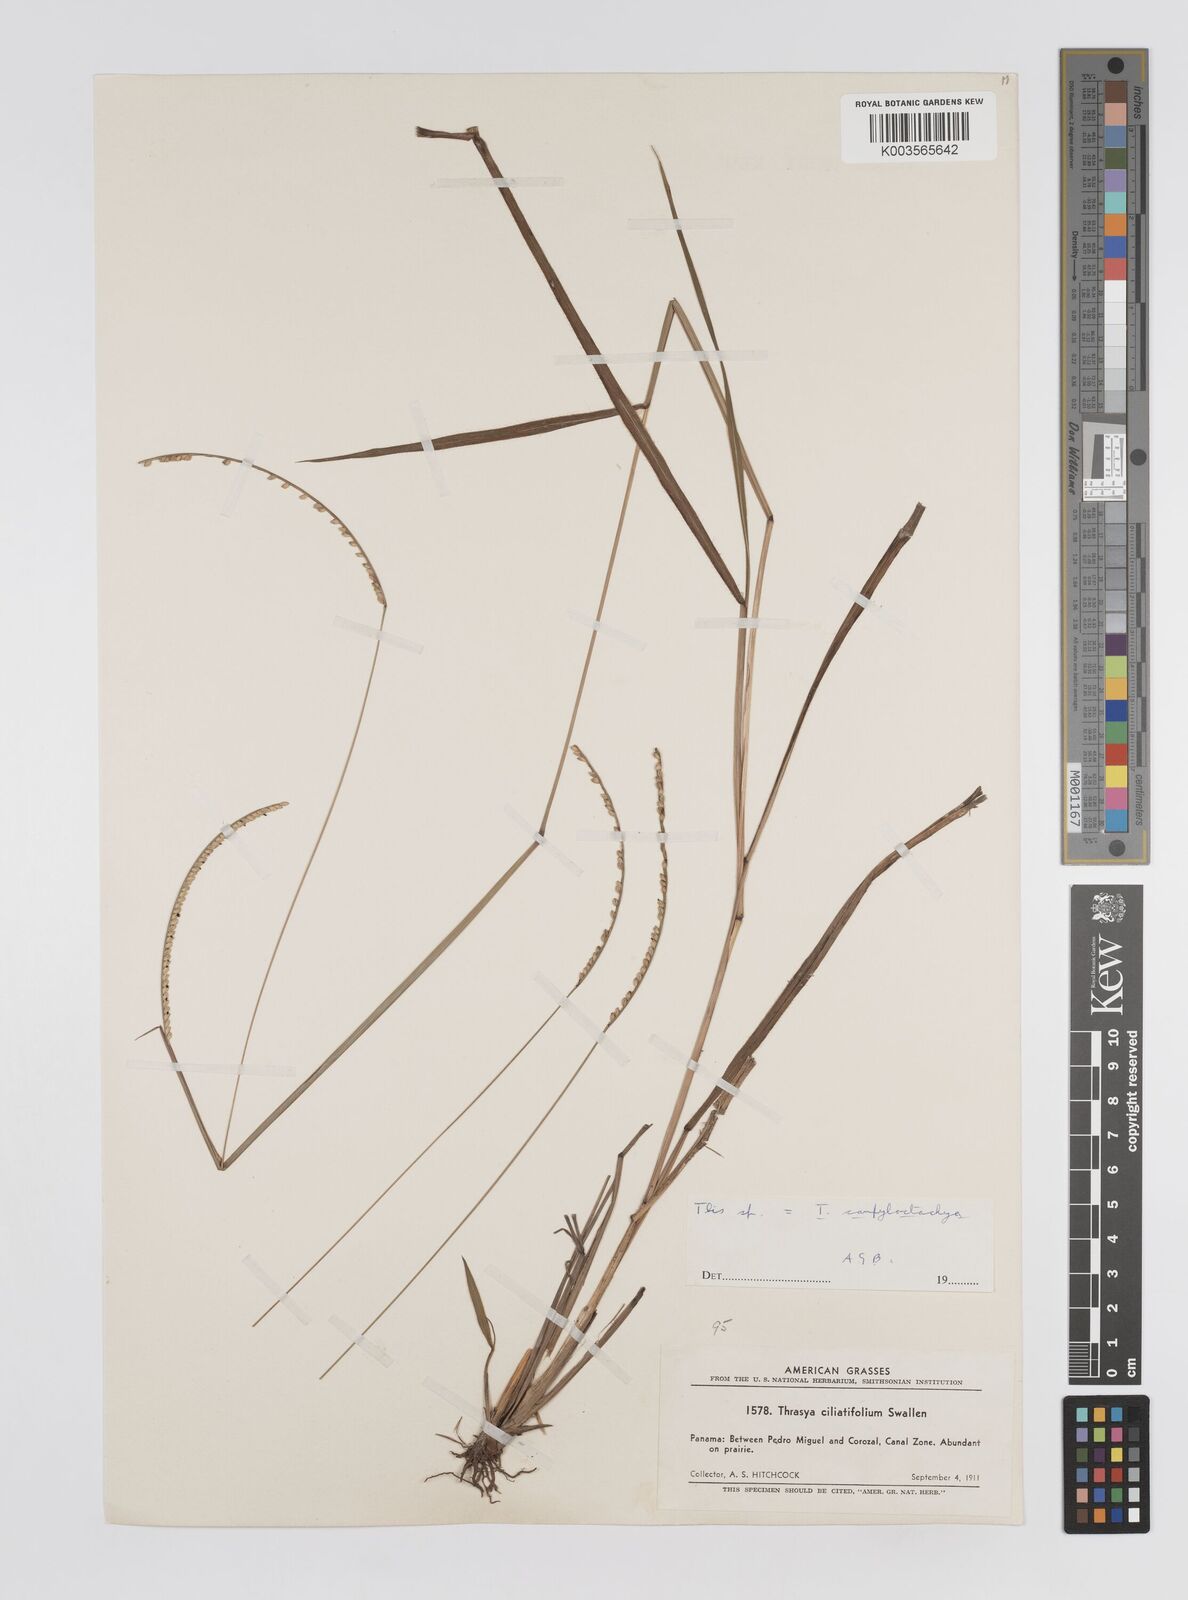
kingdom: Plantae
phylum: Tracheophyta
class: Liliopsida
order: Poales
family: Poaceae
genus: Paspalum
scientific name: Paspalum campylostachyum
